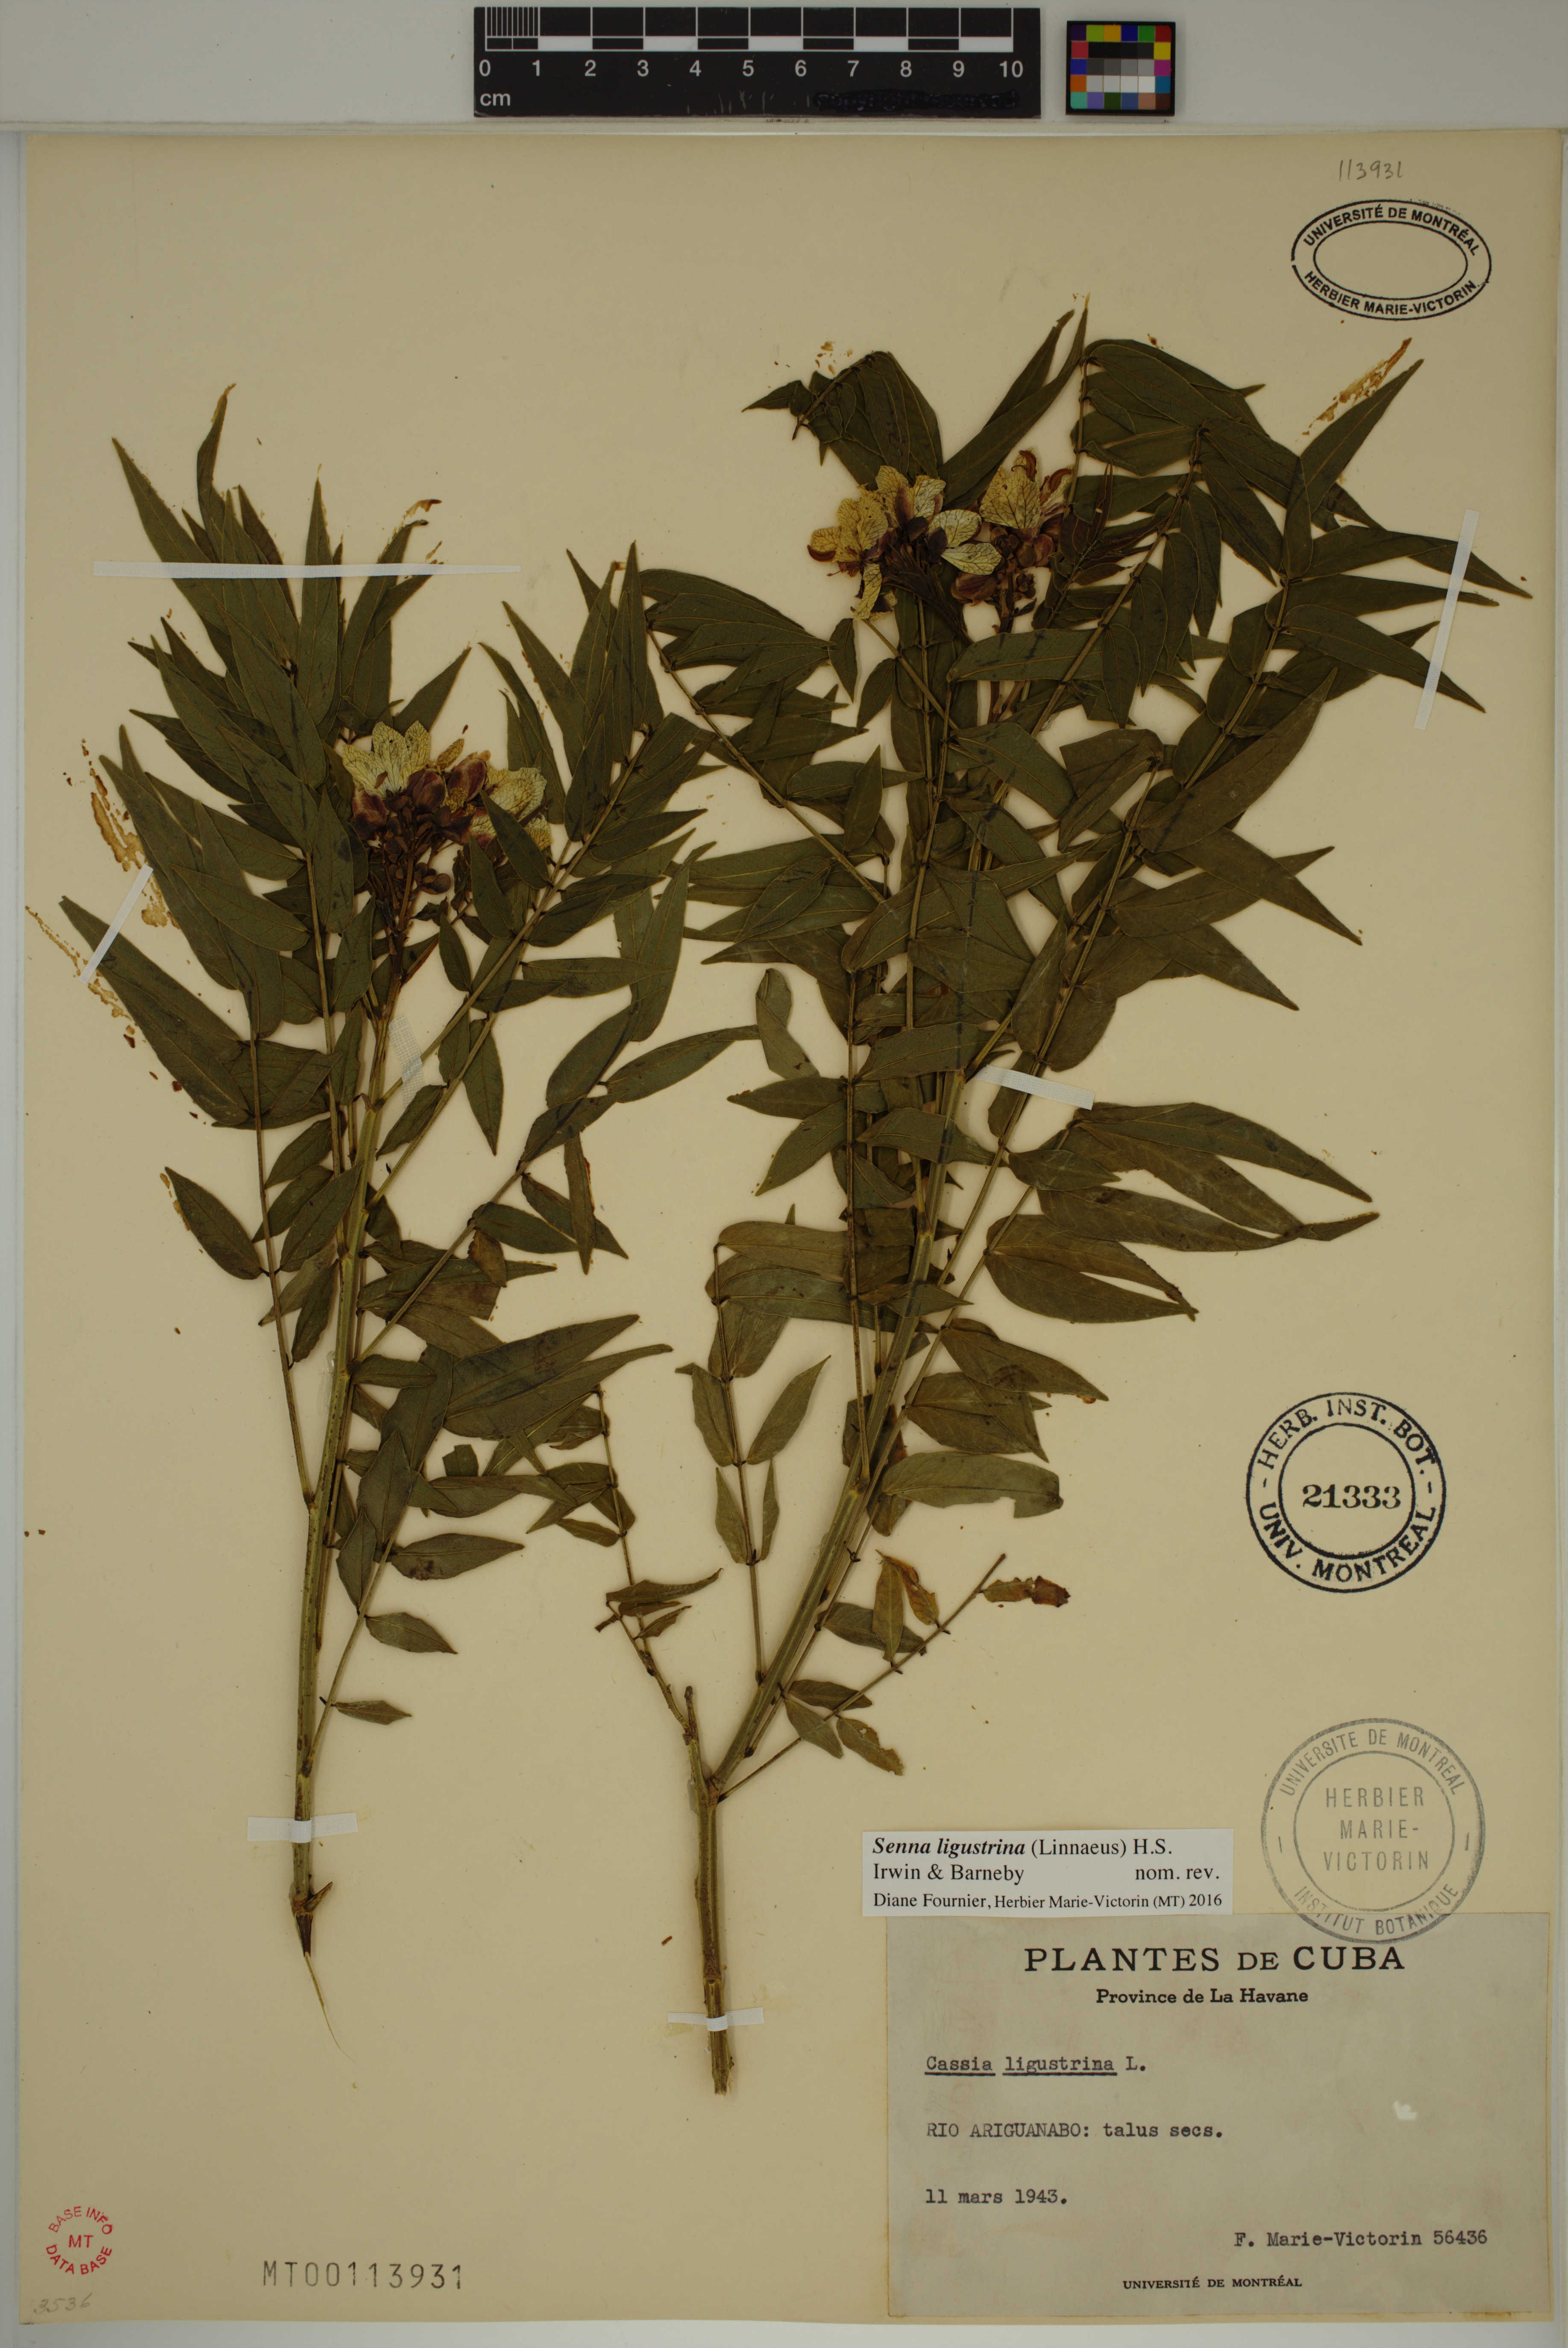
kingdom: Plantae
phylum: Tracheophyta
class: Magnoliopsida
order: Fabales
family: Fabaceae
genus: Senna
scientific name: Senna ligustrina
